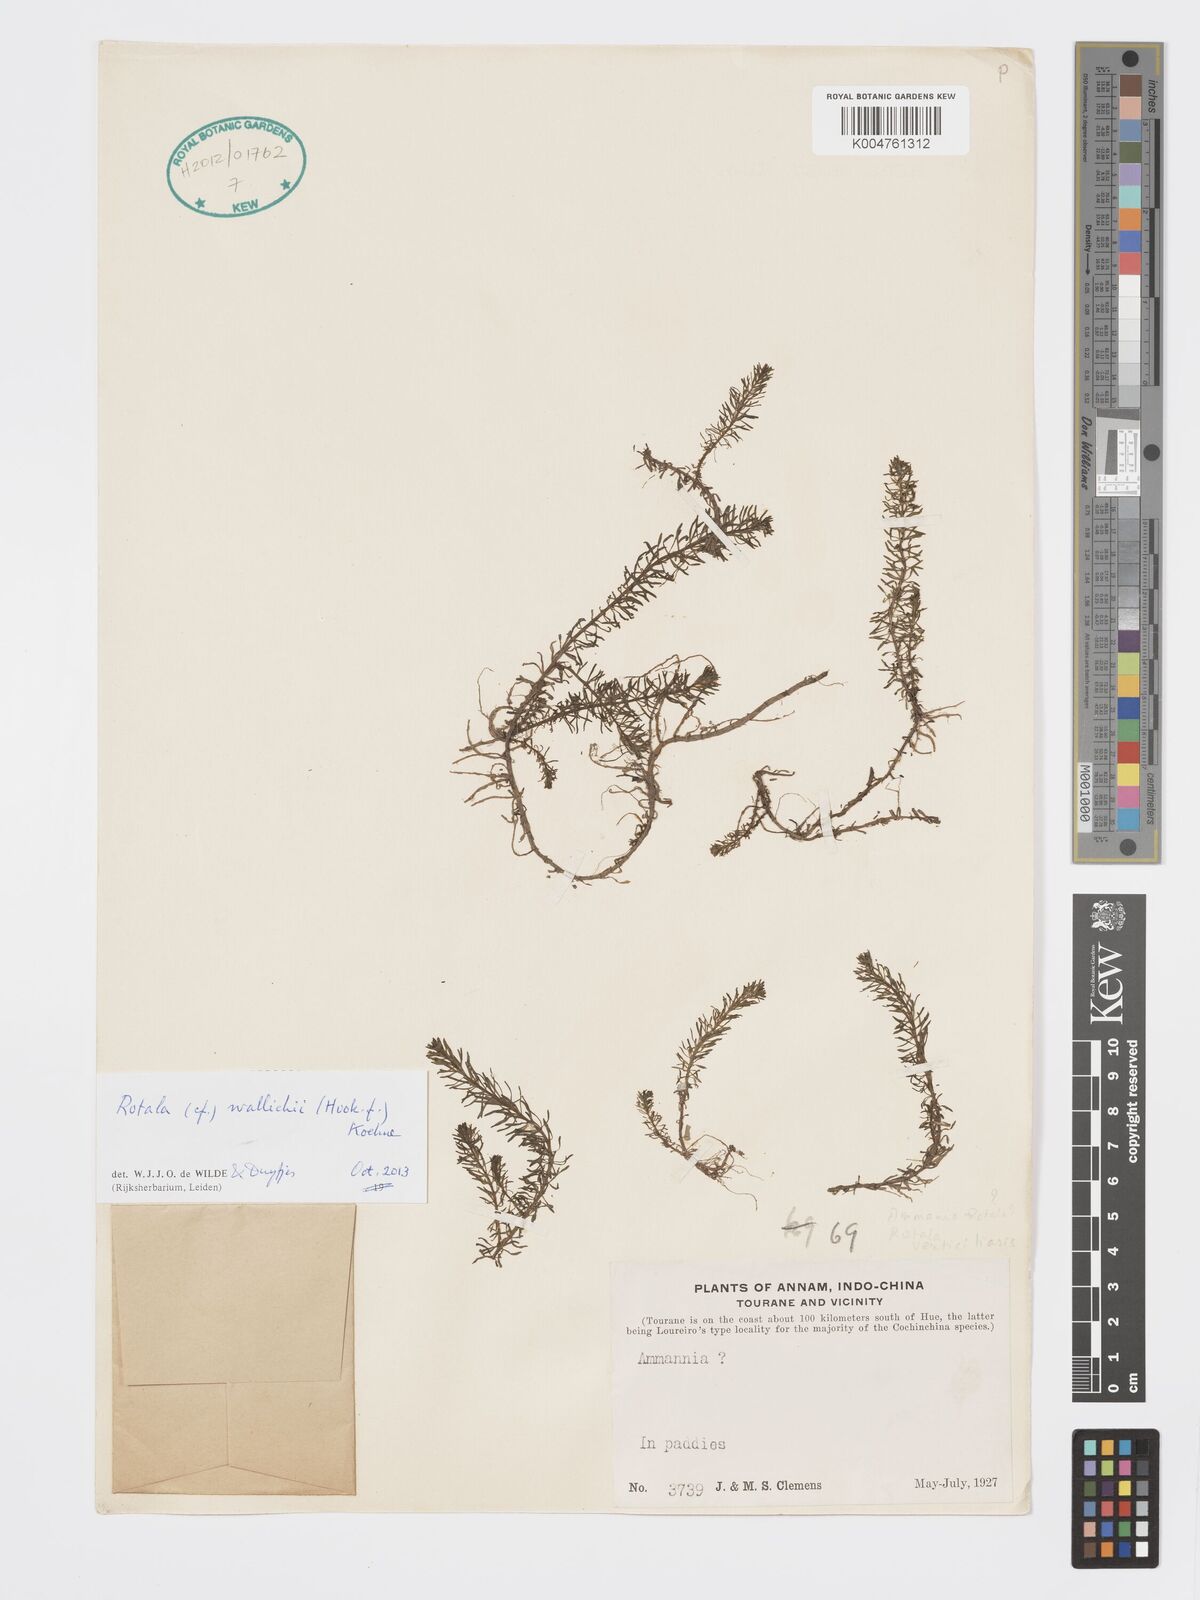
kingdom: Plantae
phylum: Tracheophyta
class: Magnoliopsida
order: Myrtales
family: Lythraceae
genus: Rotala
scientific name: Rotala wallichii
